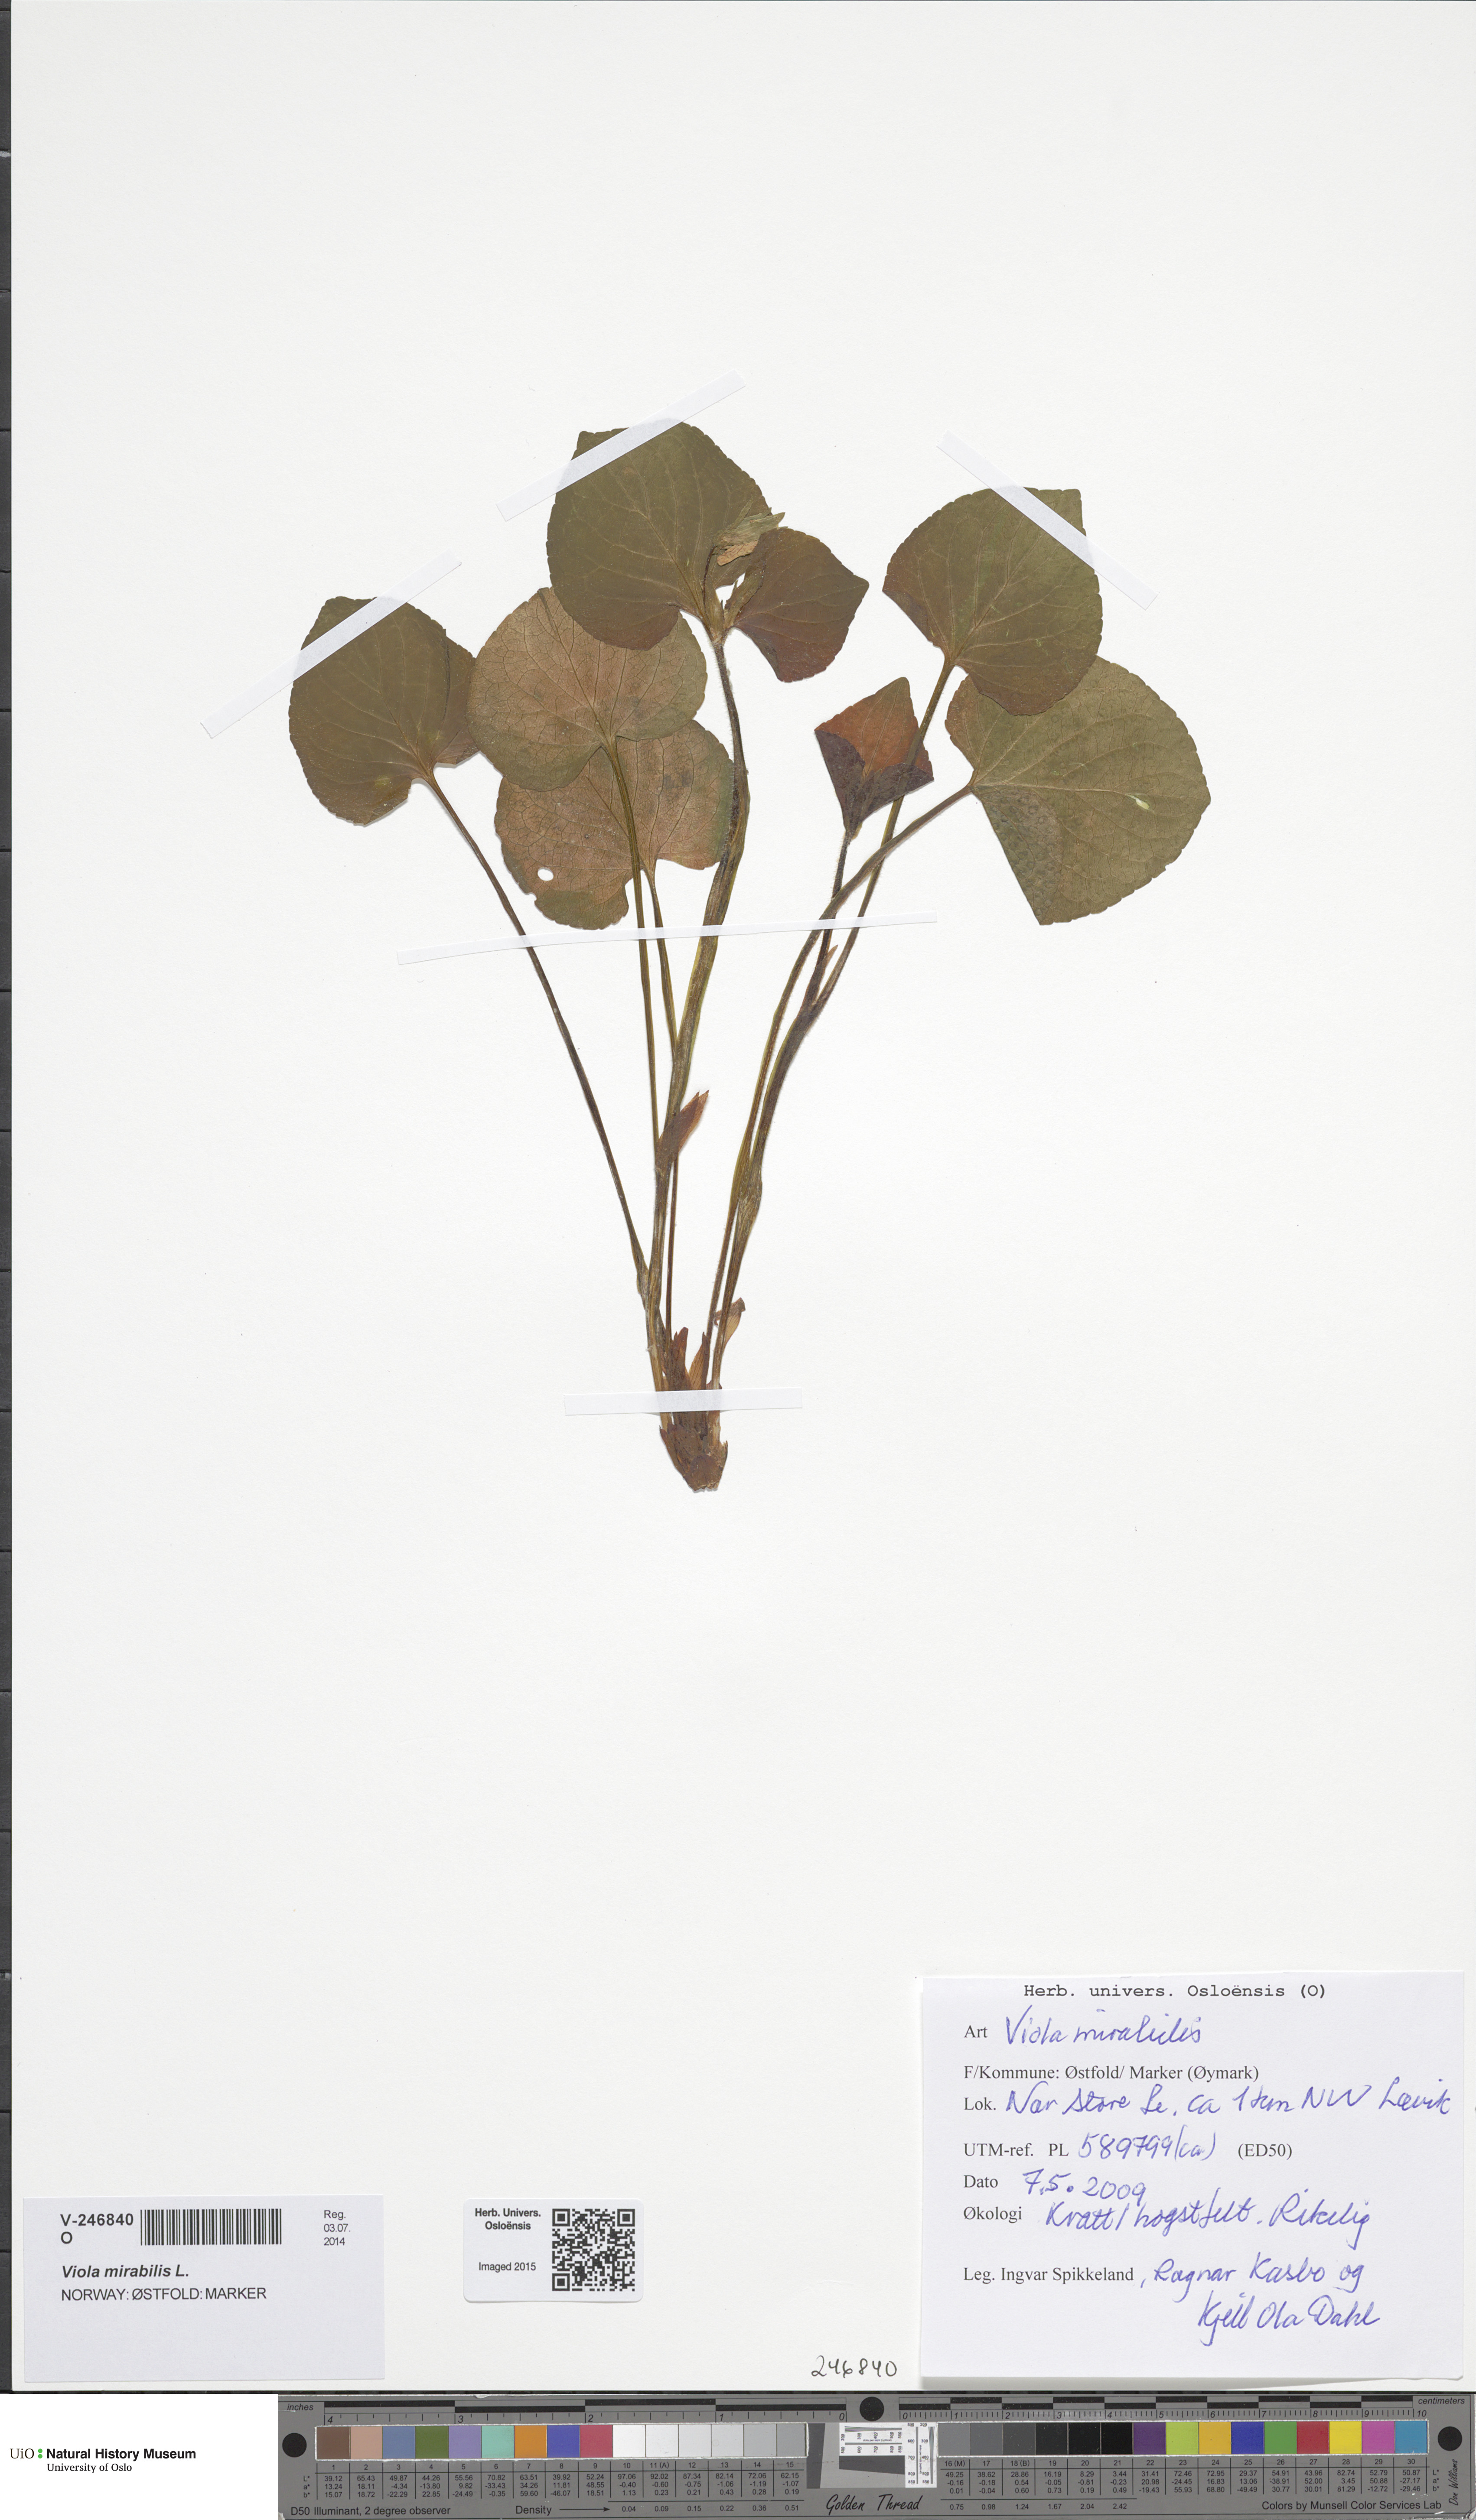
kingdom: Plantae
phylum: Tracheophyta
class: Magnoliopsida
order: Malpighiales
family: Violaceae
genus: Viola
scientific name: Viola mirabilis
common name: Wonder violet
